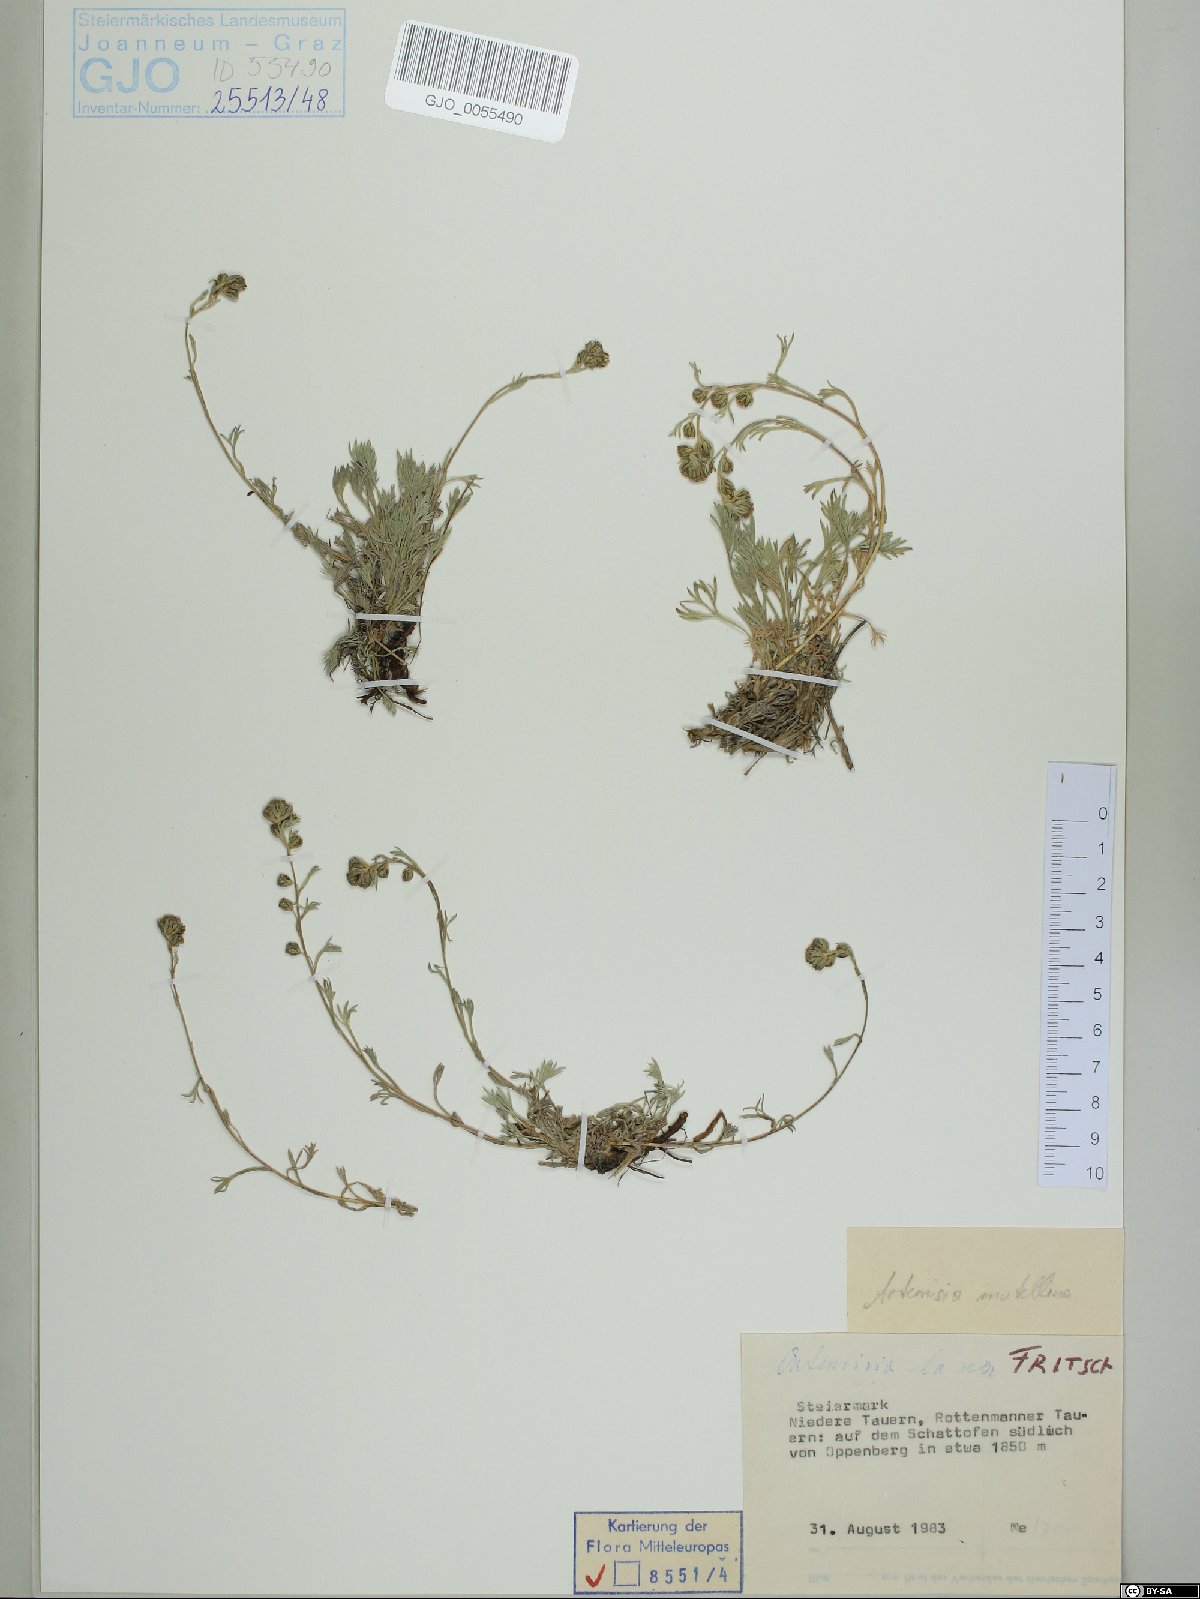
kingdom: Plantae
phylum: Tracheophyta
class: Magnoliopsida
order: Asterales
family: Asteraceae
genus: Artemisia
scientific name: Artemisia mutellina
